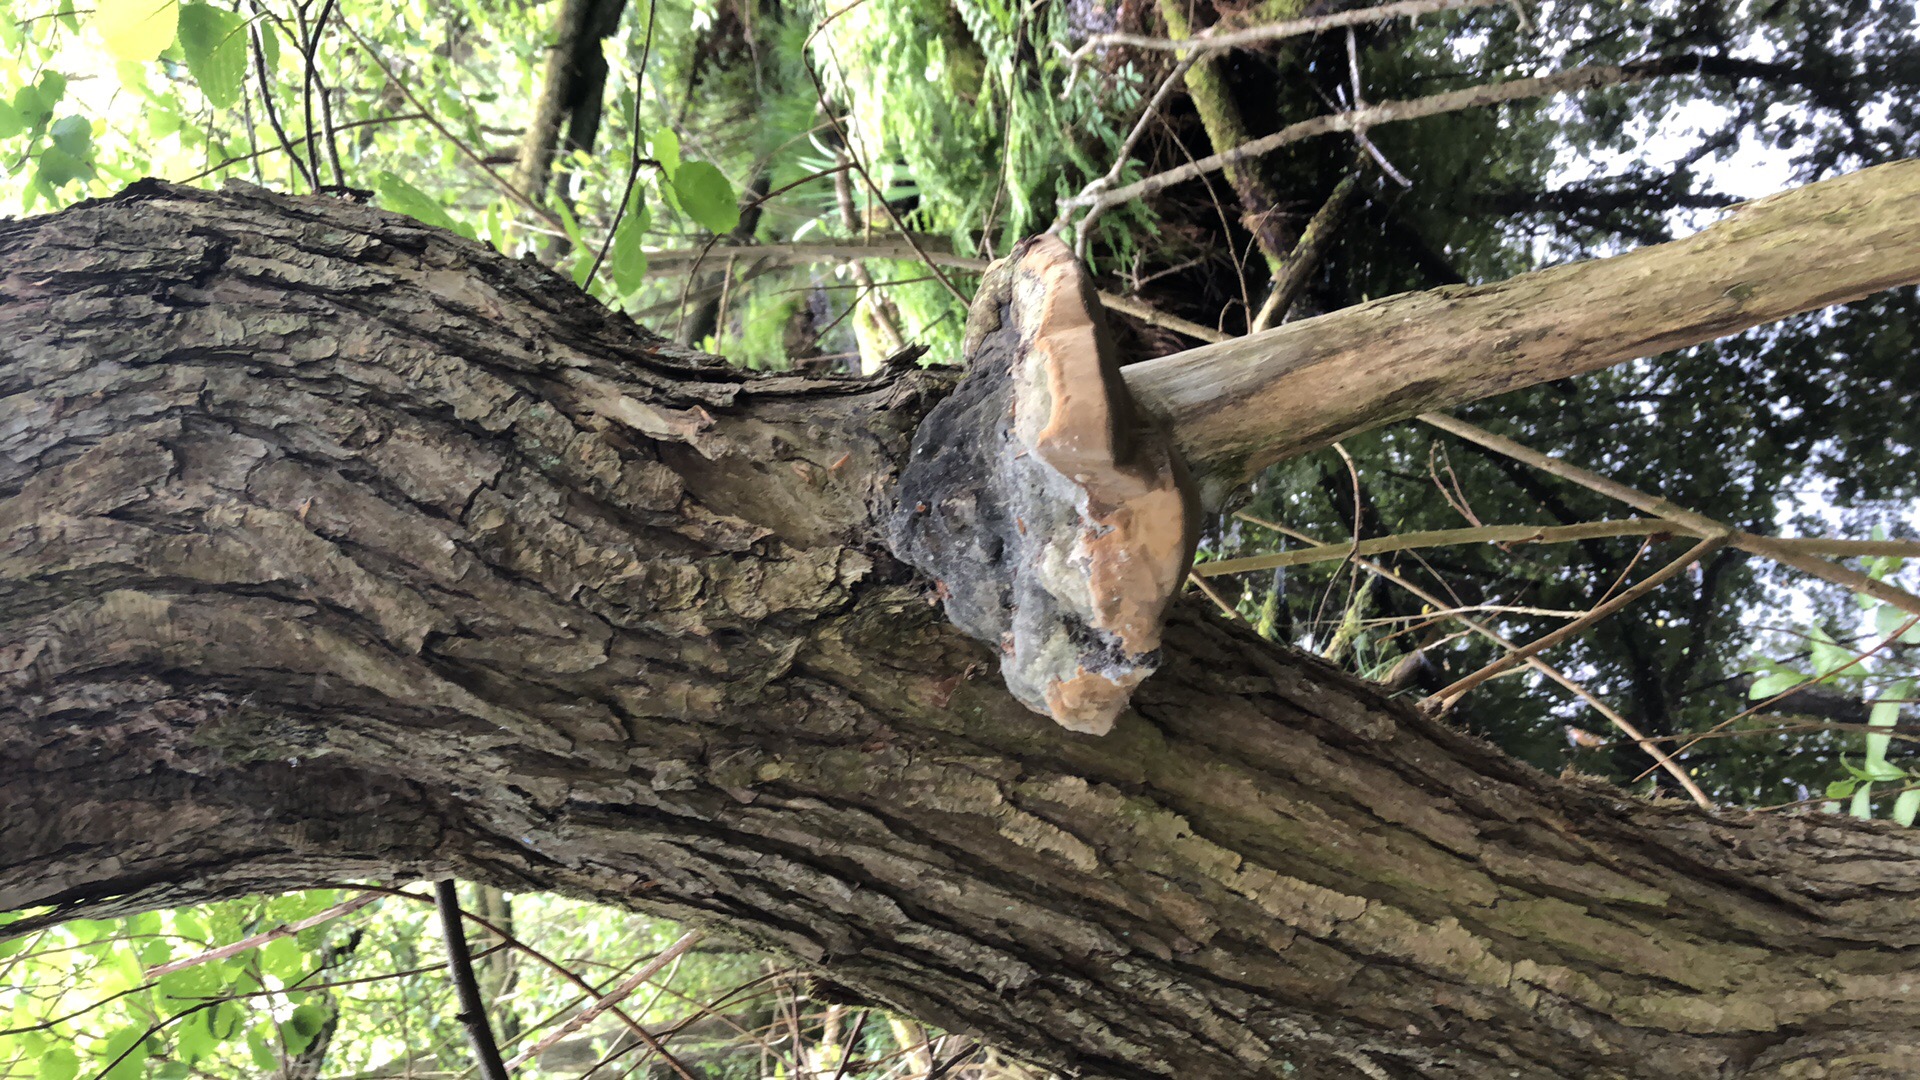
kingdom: Fungi
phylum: Basidiomycota
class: Agaricomycetes
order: Hymenochaetales
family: Hymenochaetaceae
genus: Phellinus
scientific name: Phellinus igniarius
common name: almindelig ildporesvamp
